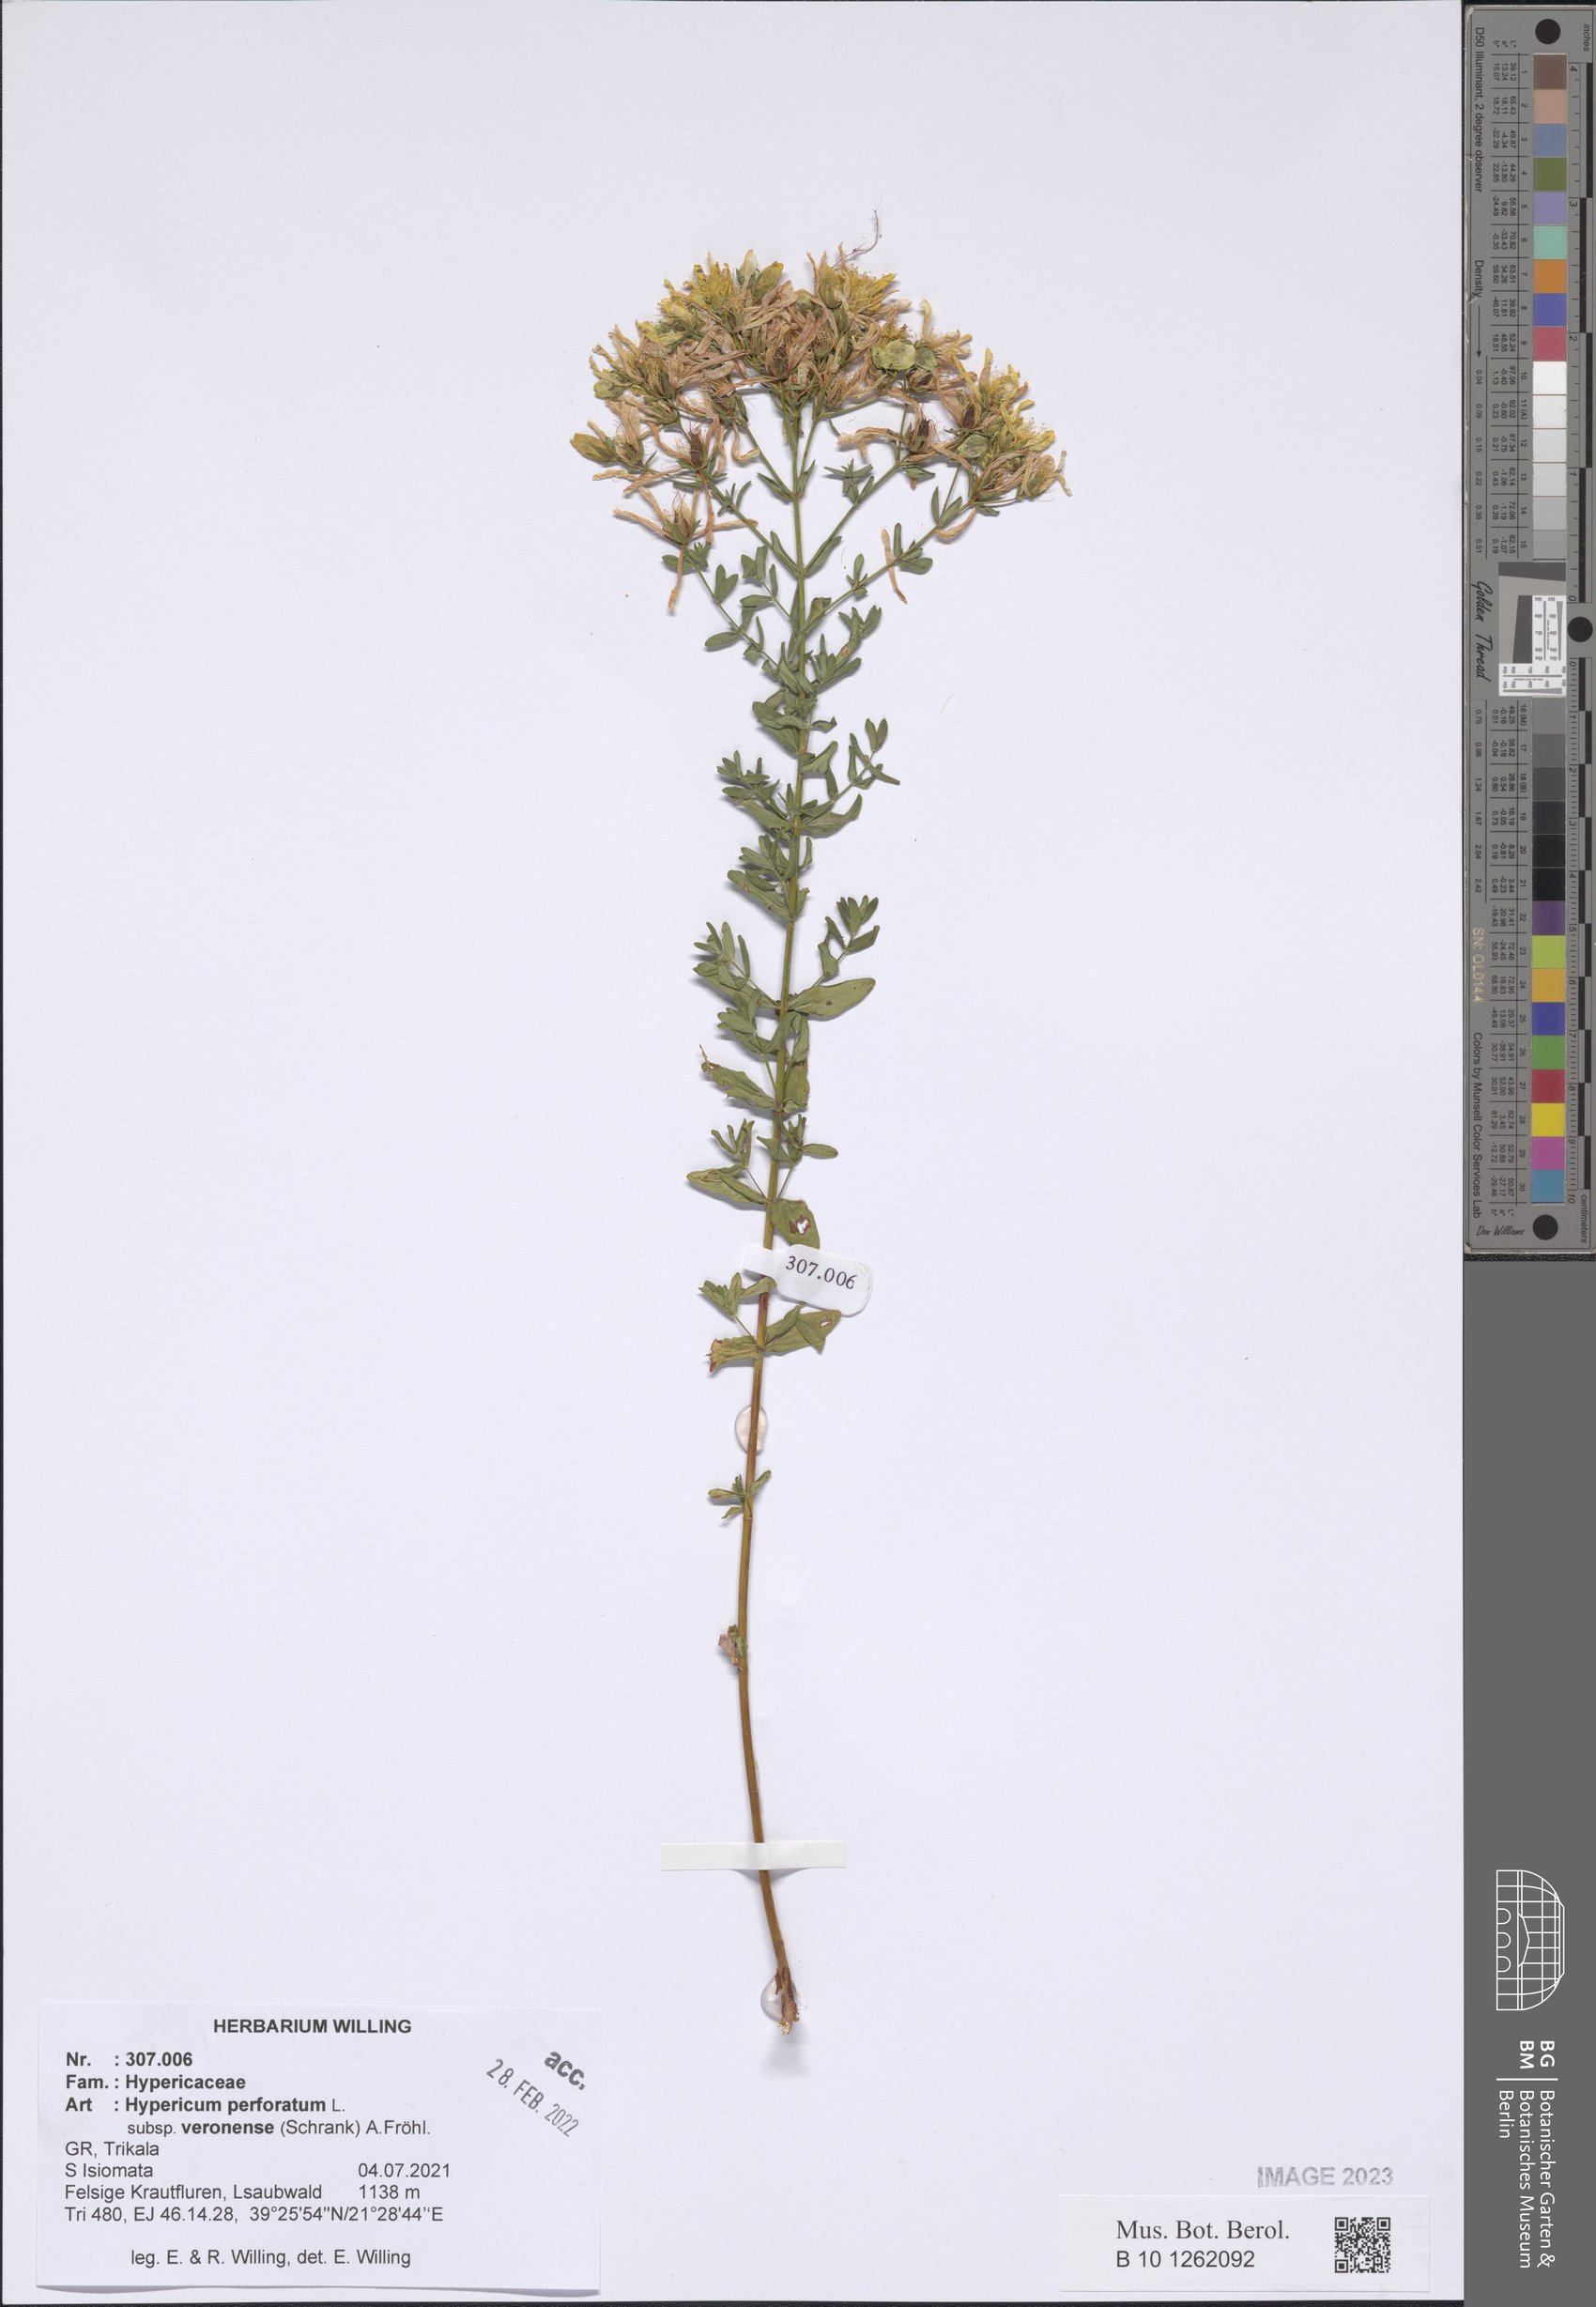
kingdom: Plantae
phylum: Tracheophyta
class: Magnoliopsida
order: Malpighiales
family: Hypericaceae
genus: Hypericum
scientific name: Hypericum veronense
